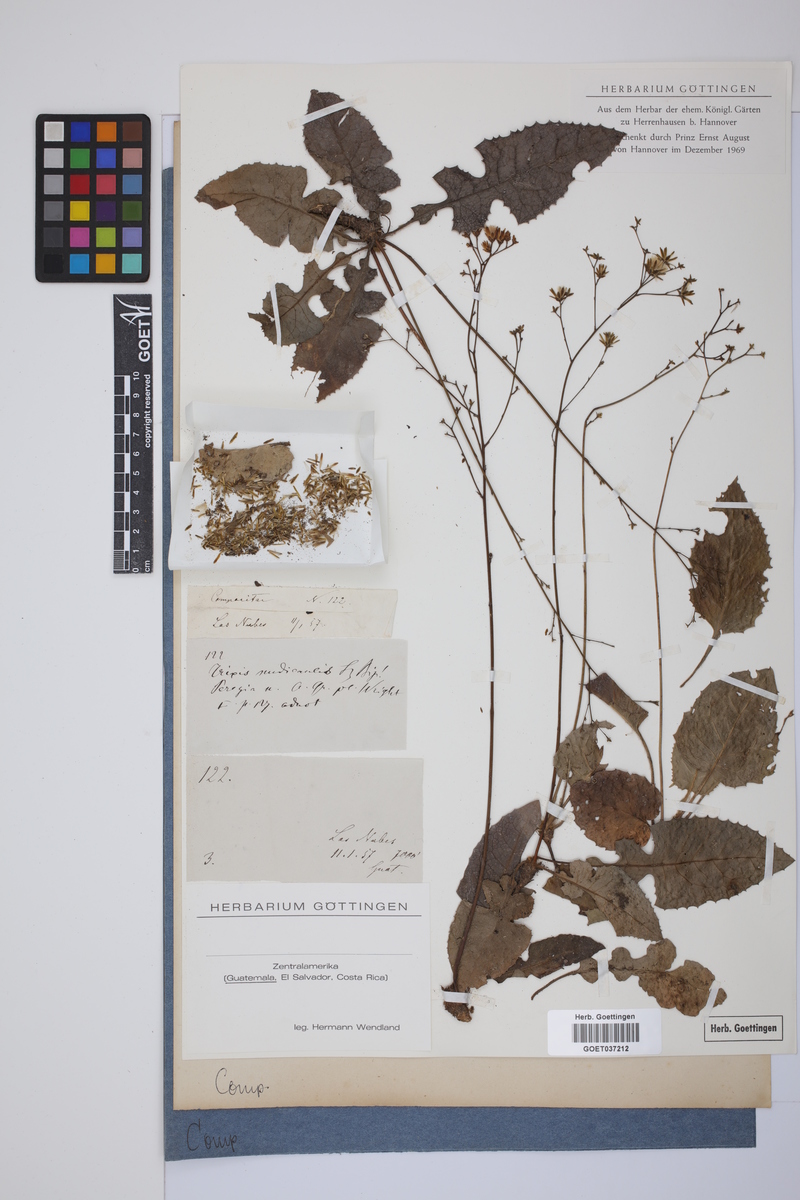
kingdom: Plantae
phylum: Tracheophyta
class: Magnoliopsida
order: Asterales
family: Asteraceae
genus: Thrincia
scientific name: Thrincia saxatilis
